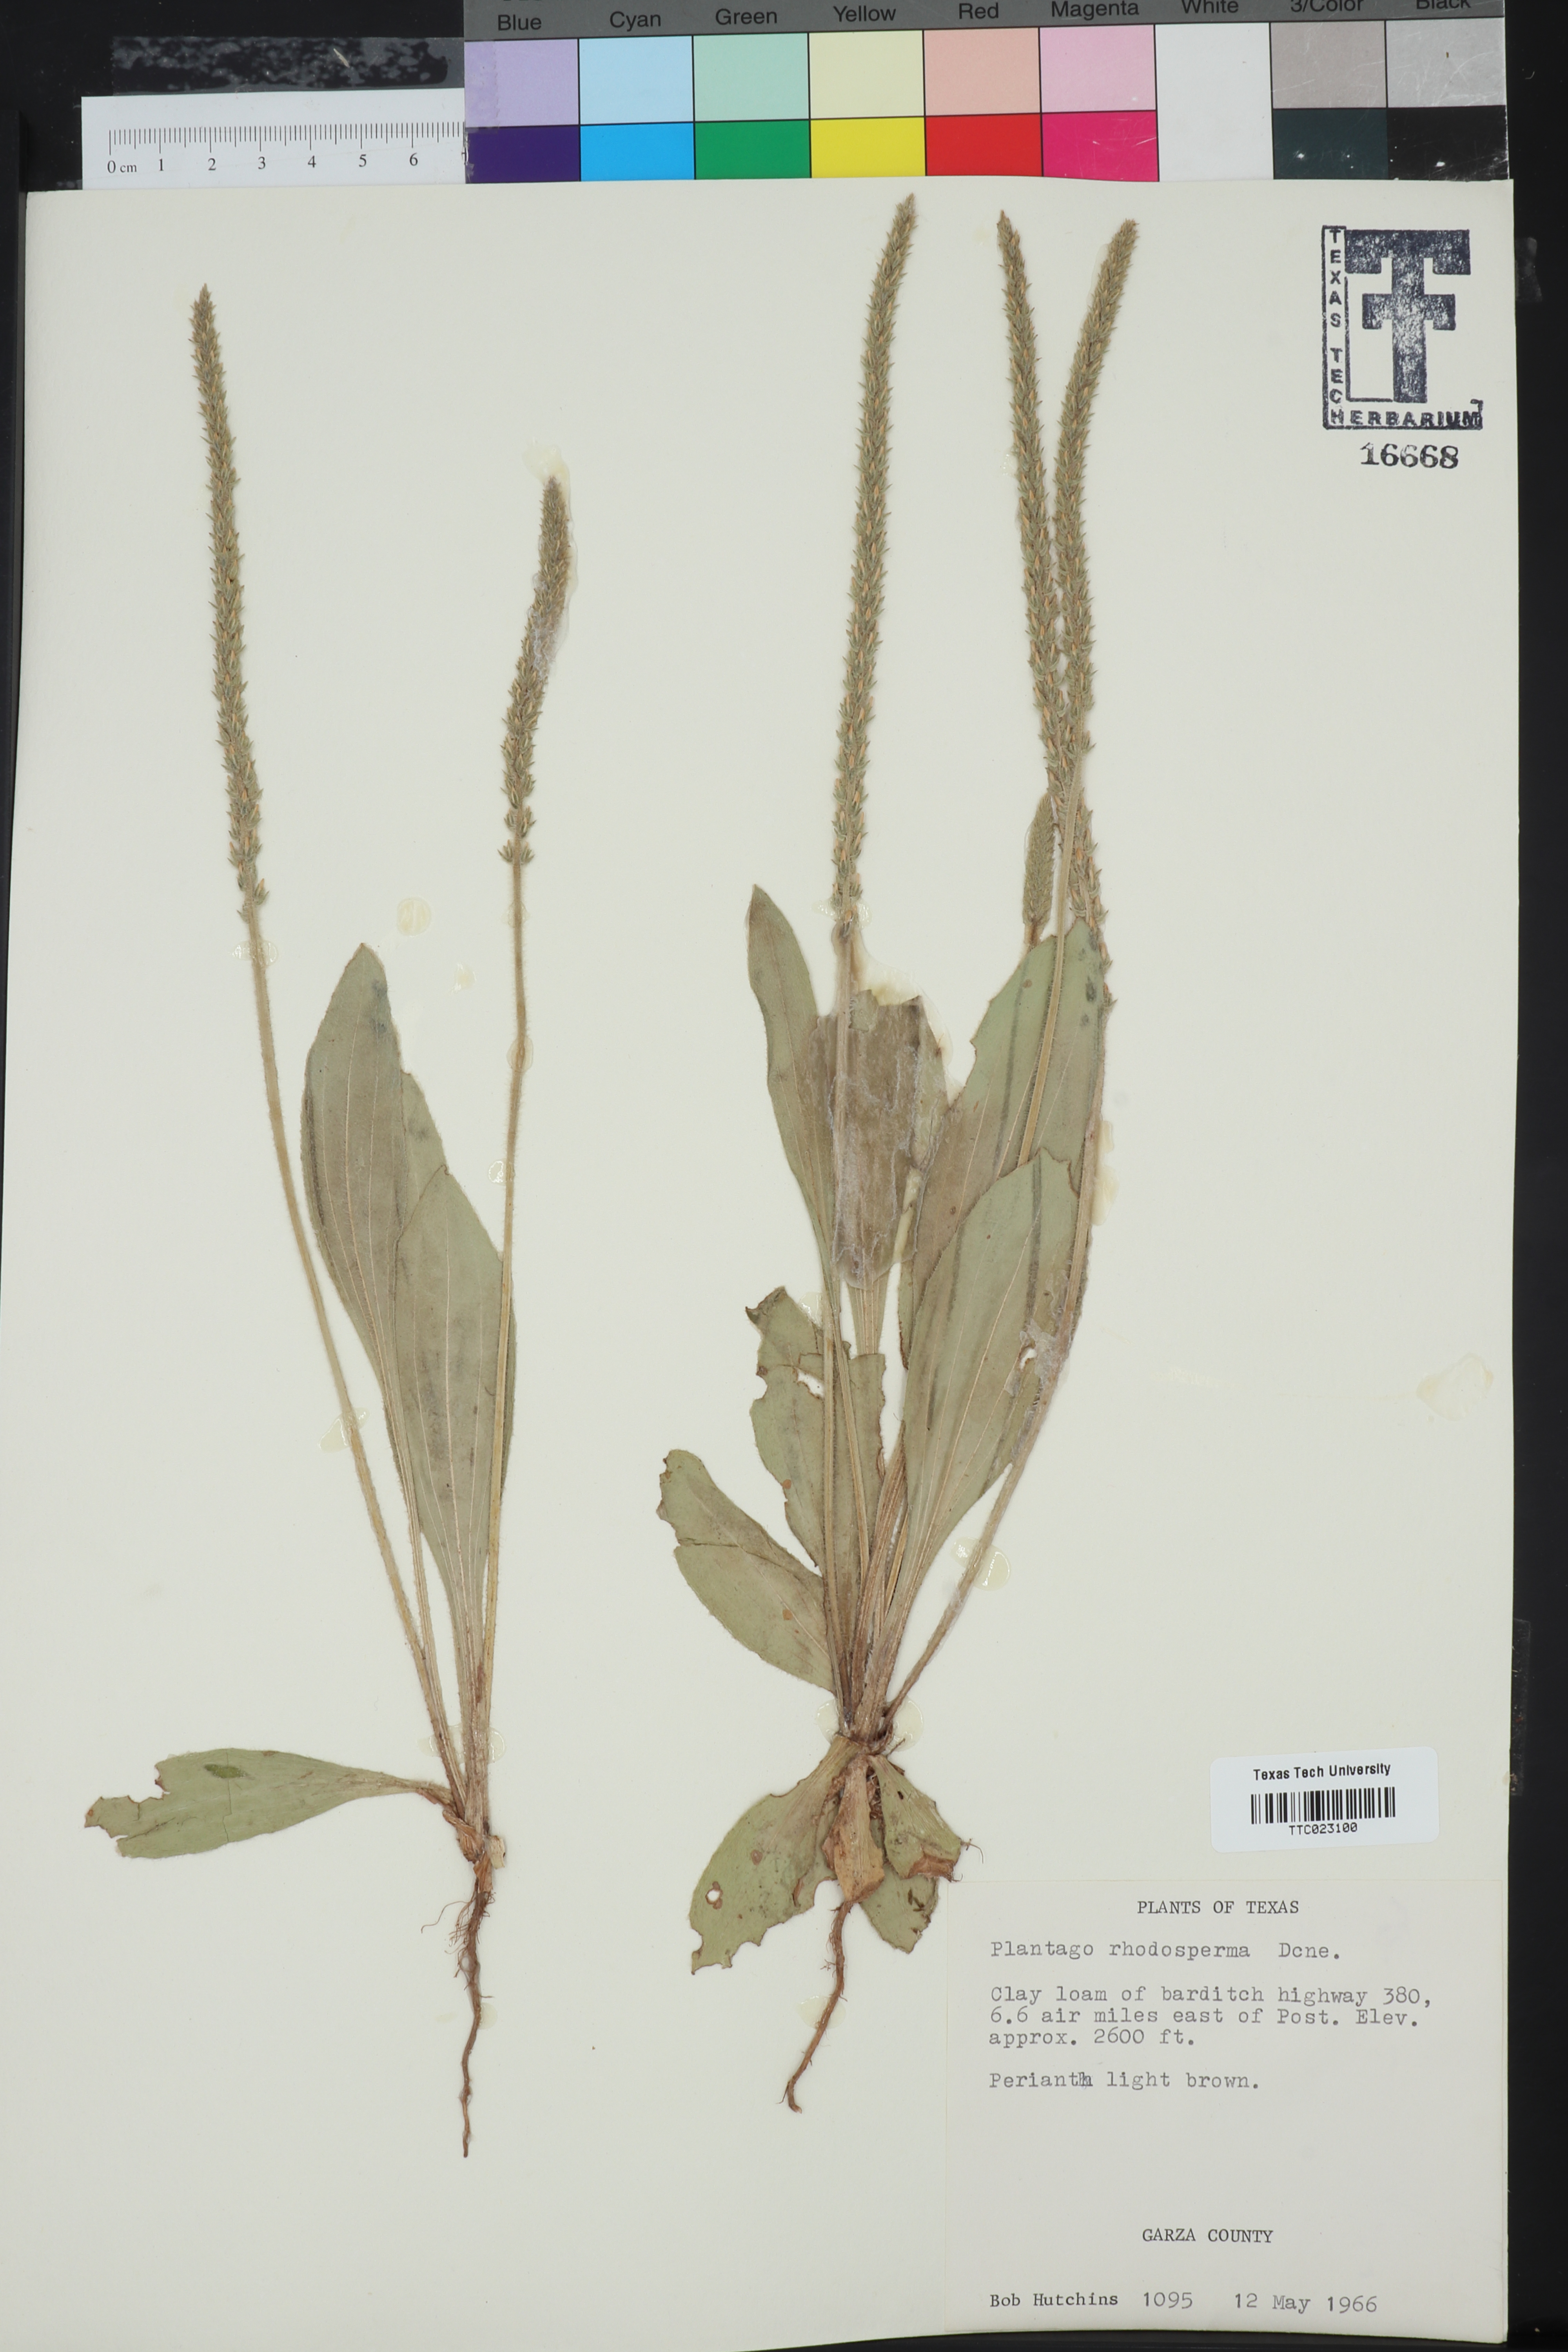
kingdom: Plantae
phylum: Tracheophyta
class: Magnoliopsida
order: Lamiales
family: Plantaginaceae
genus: Plantago
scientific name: Plantago rhodosperma
